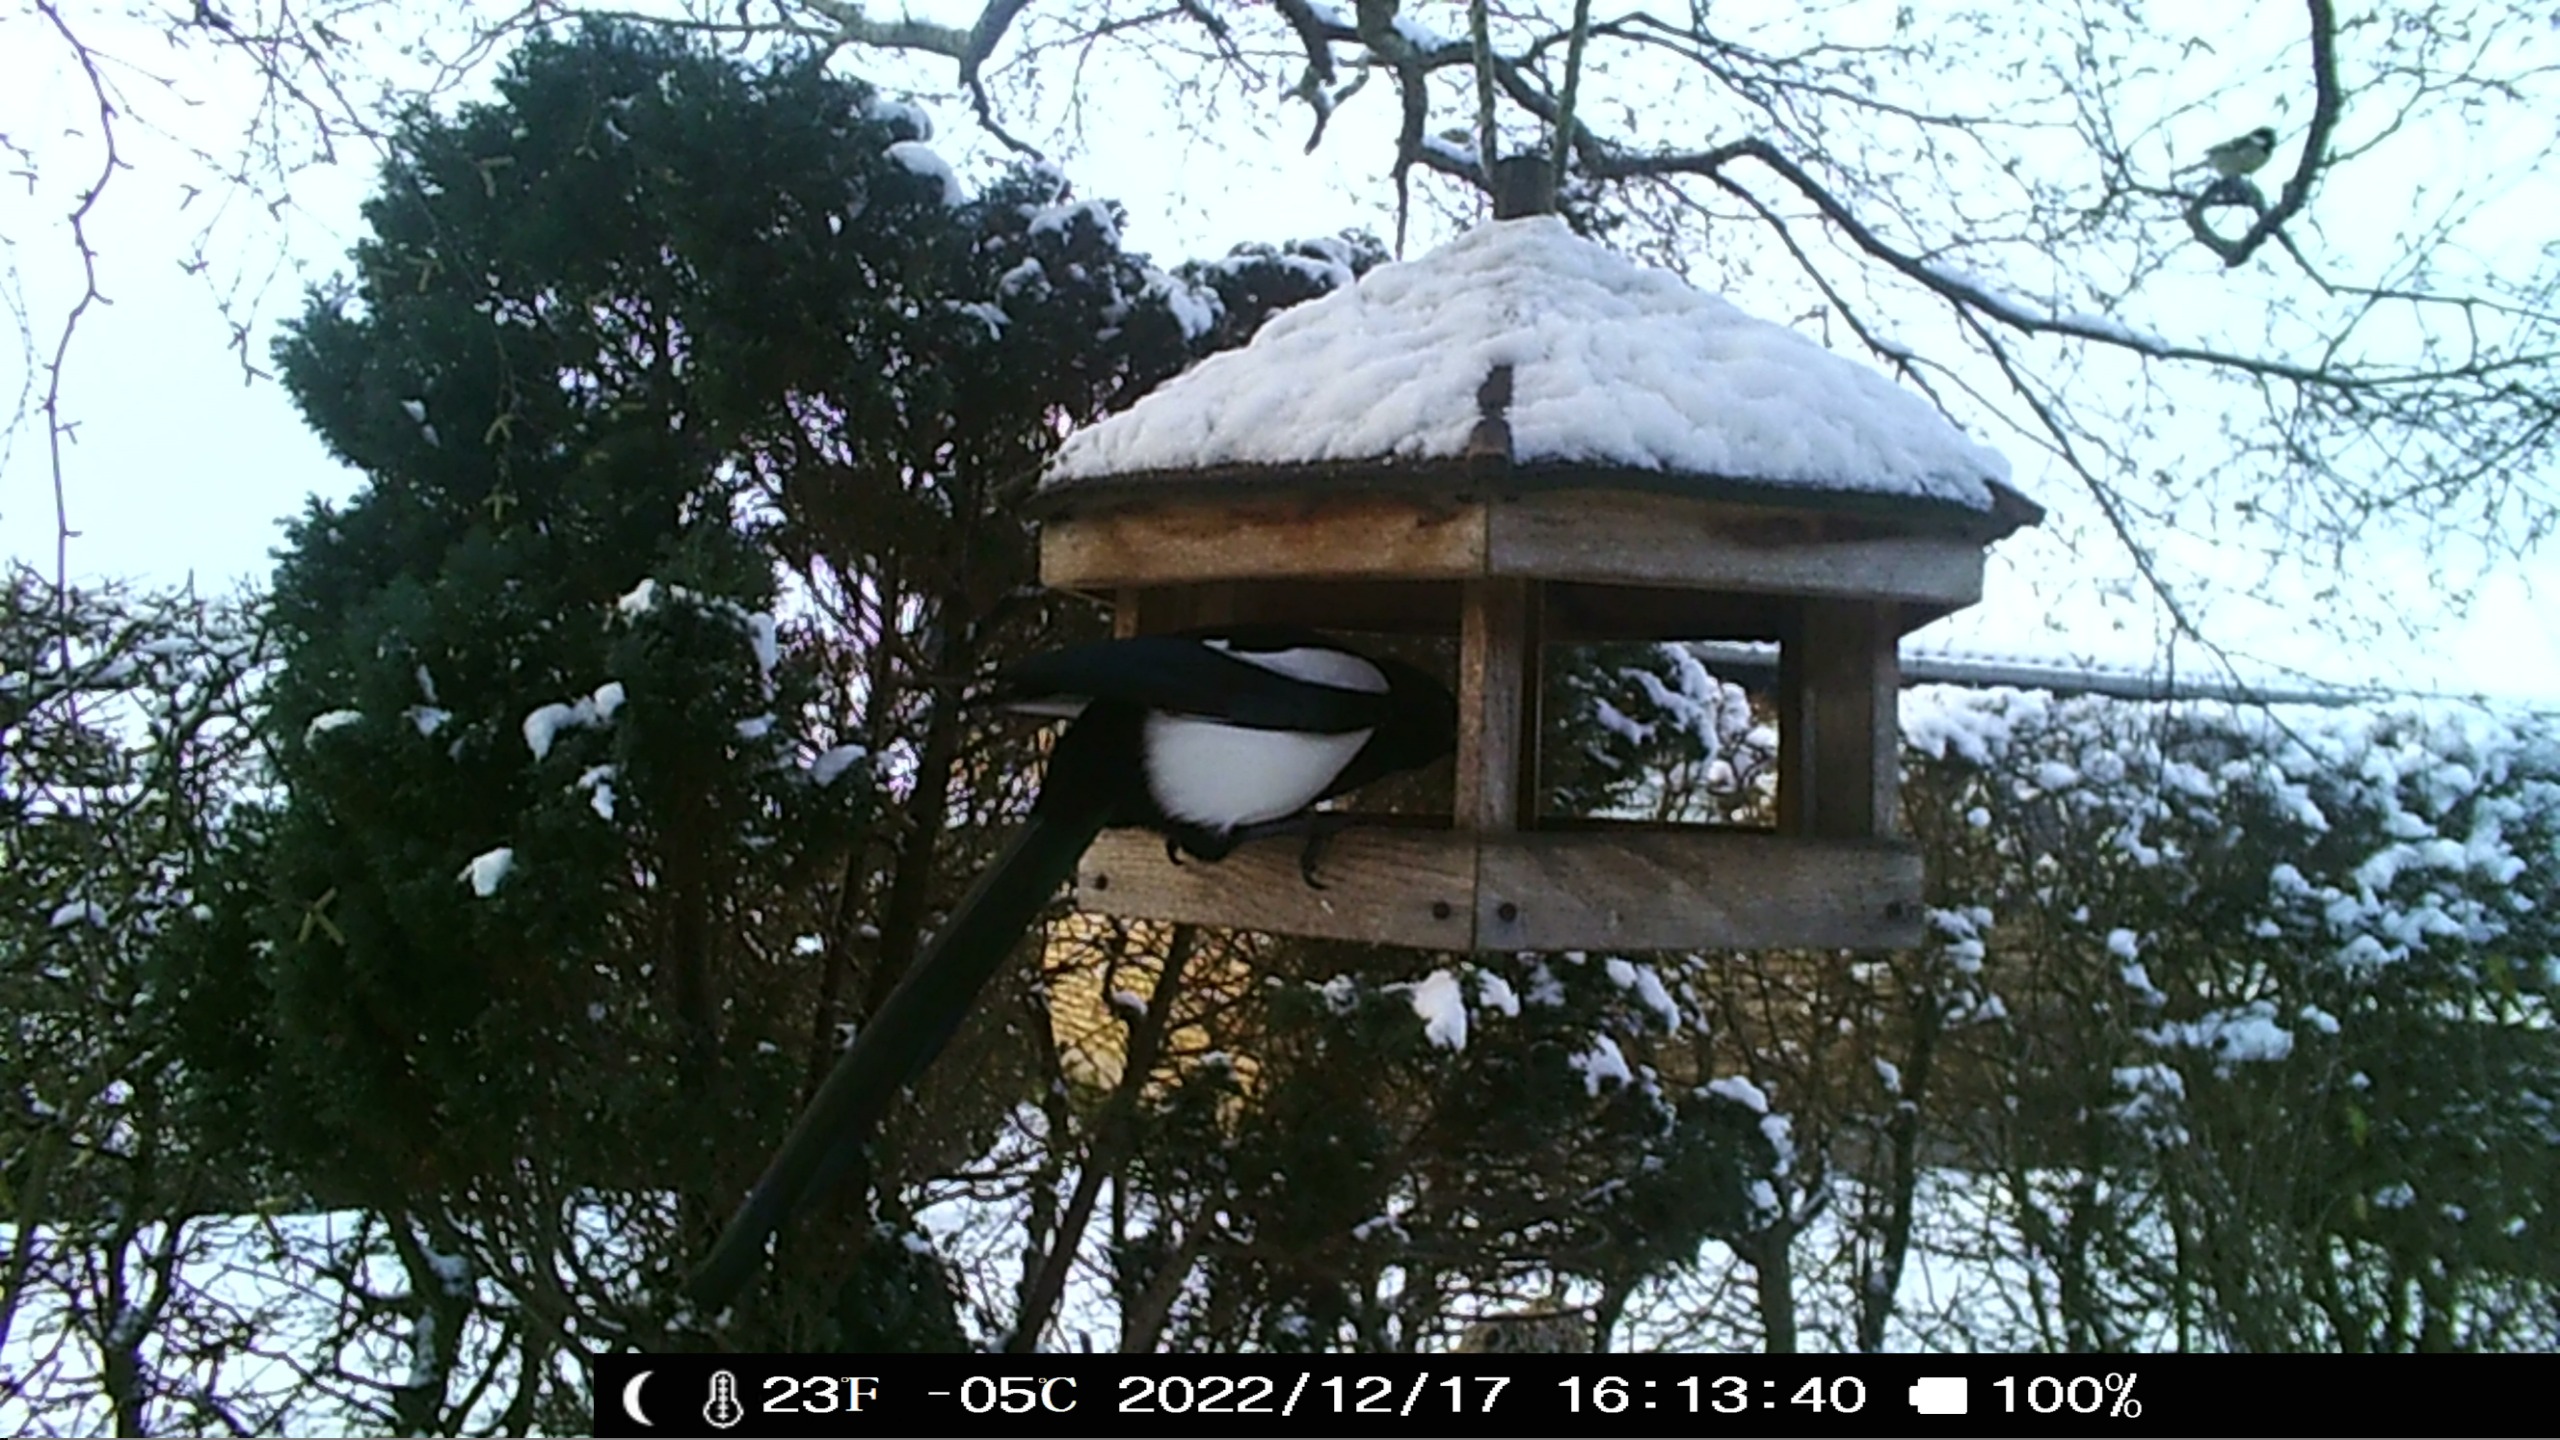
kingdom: Animalia
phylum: Chordata
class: Aves
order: Passeriformes
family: Corvidae
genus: Pica
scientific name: Pica pica
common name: Husskade
